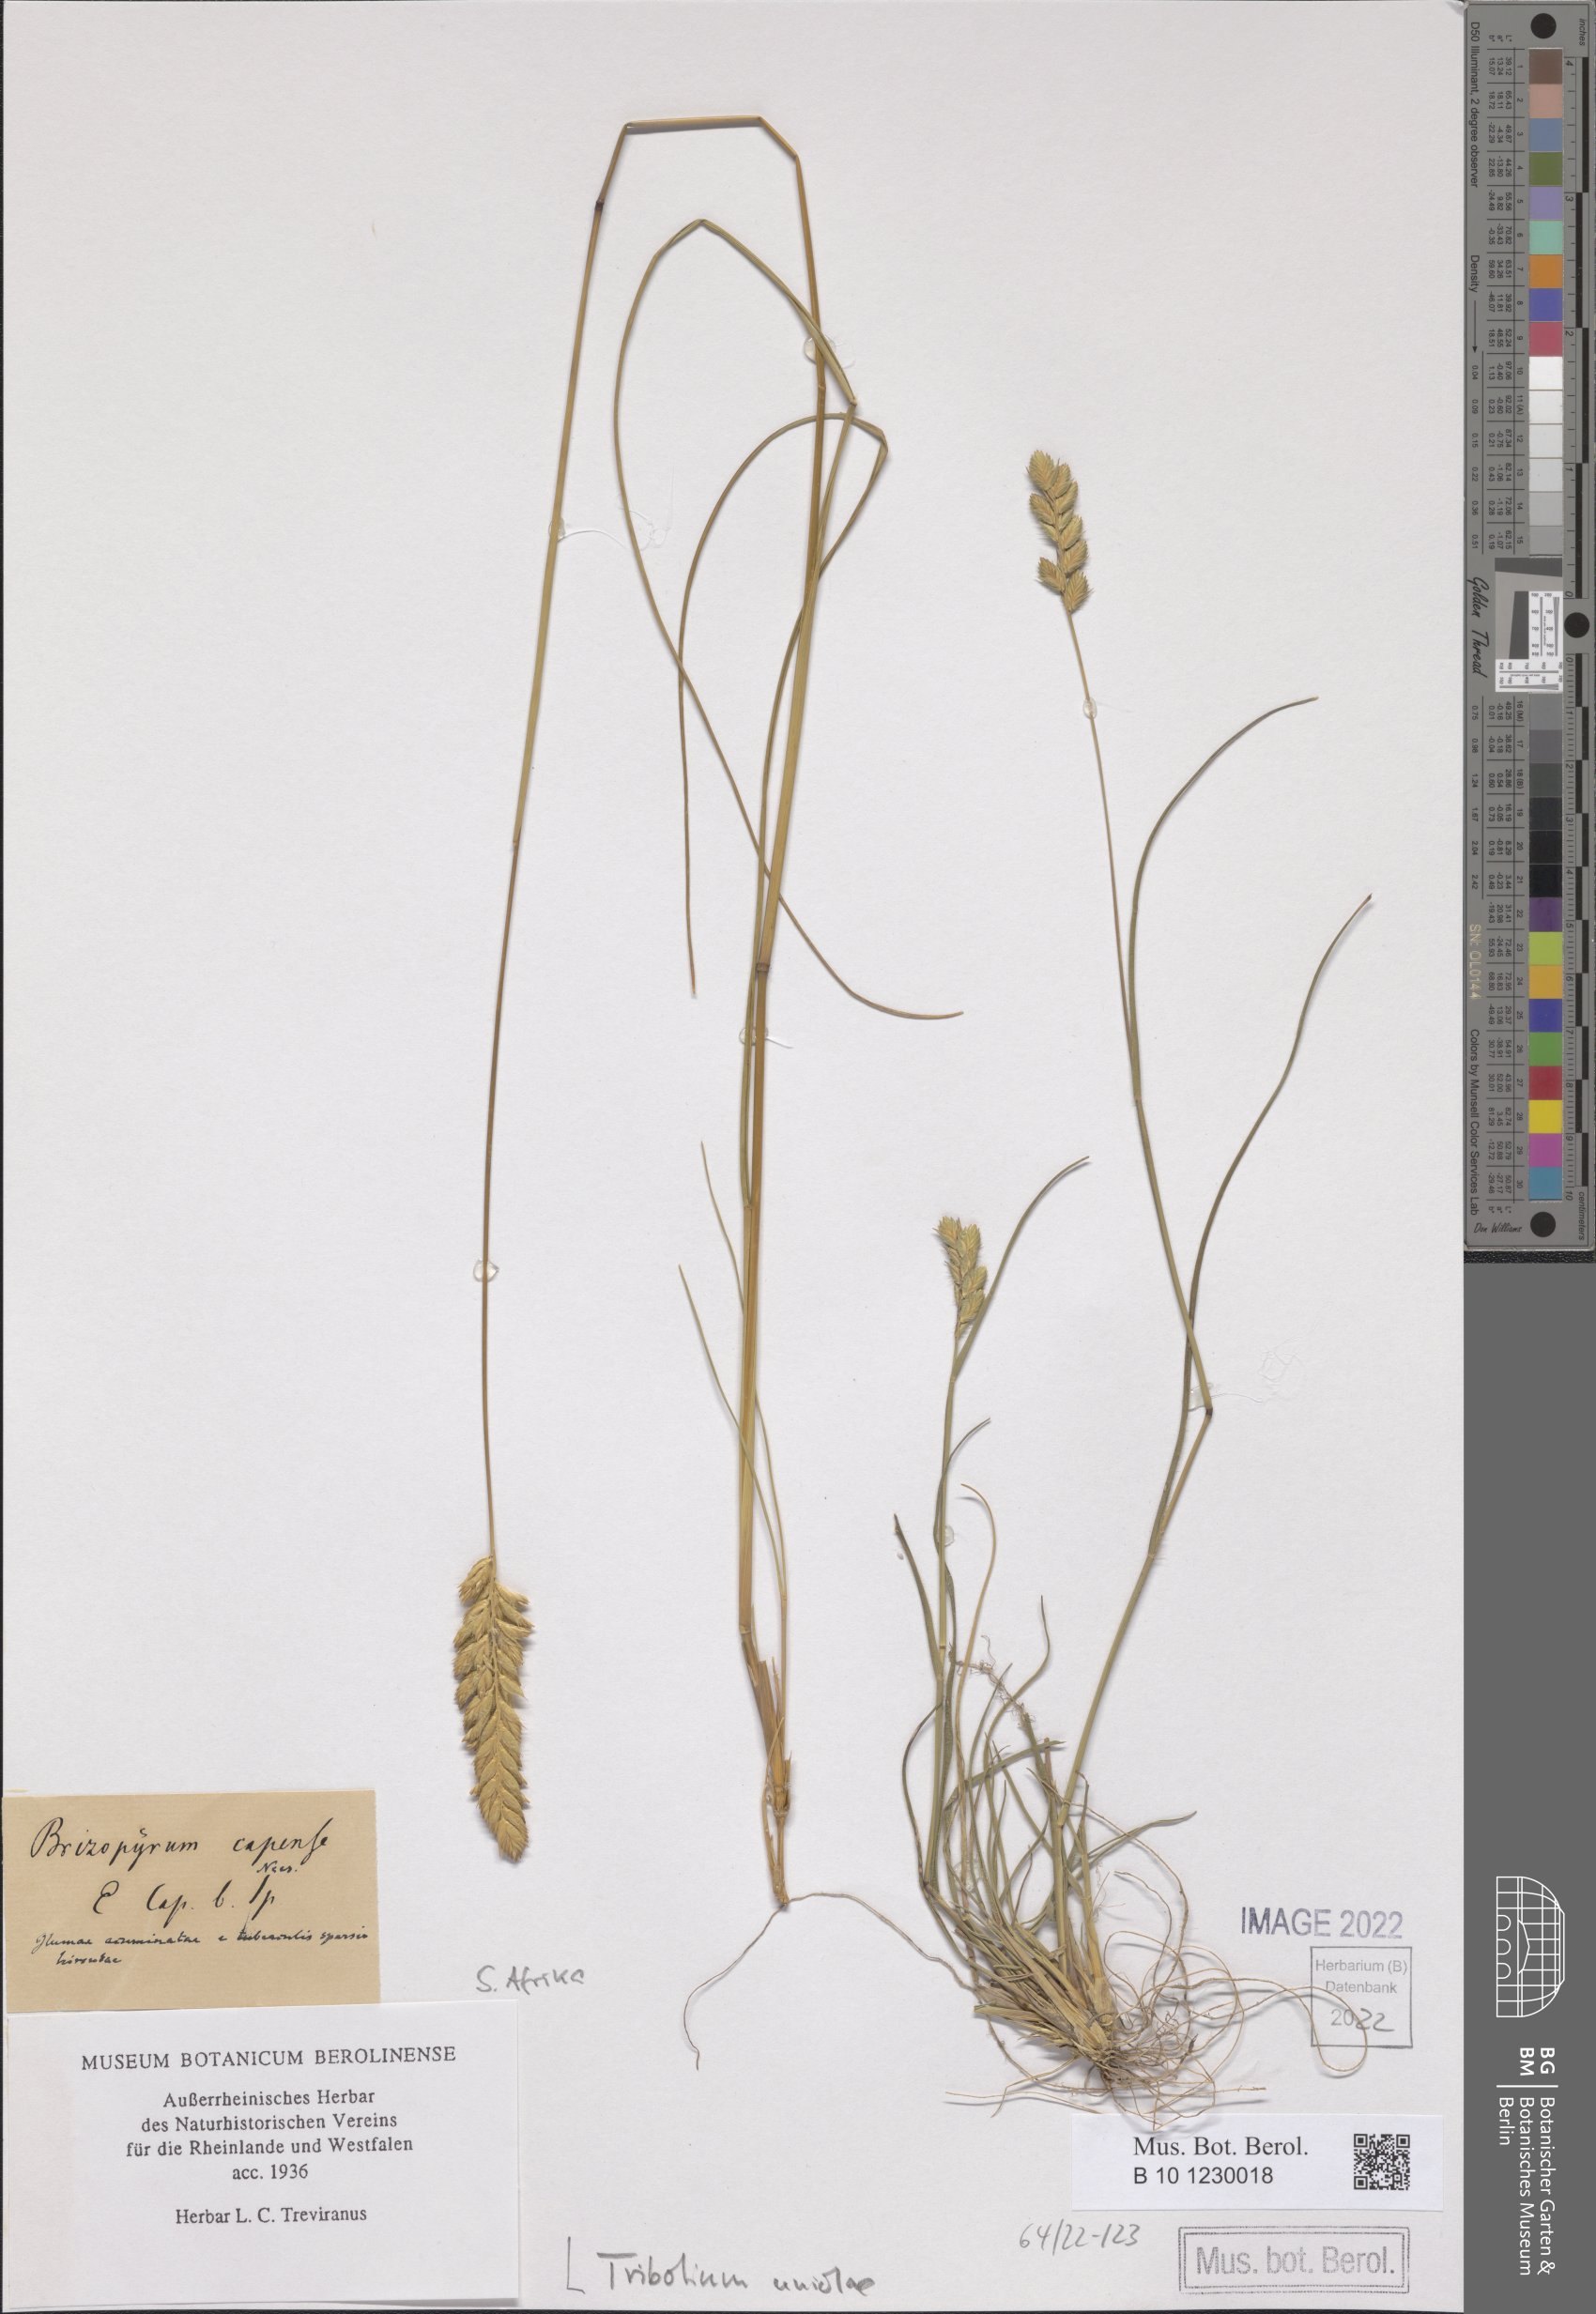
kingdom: Plantae
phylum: Tracheophyta
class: Liliopsida
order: Poales
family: Poaceae
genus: Tribolium
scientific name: Tribolium uniolae
